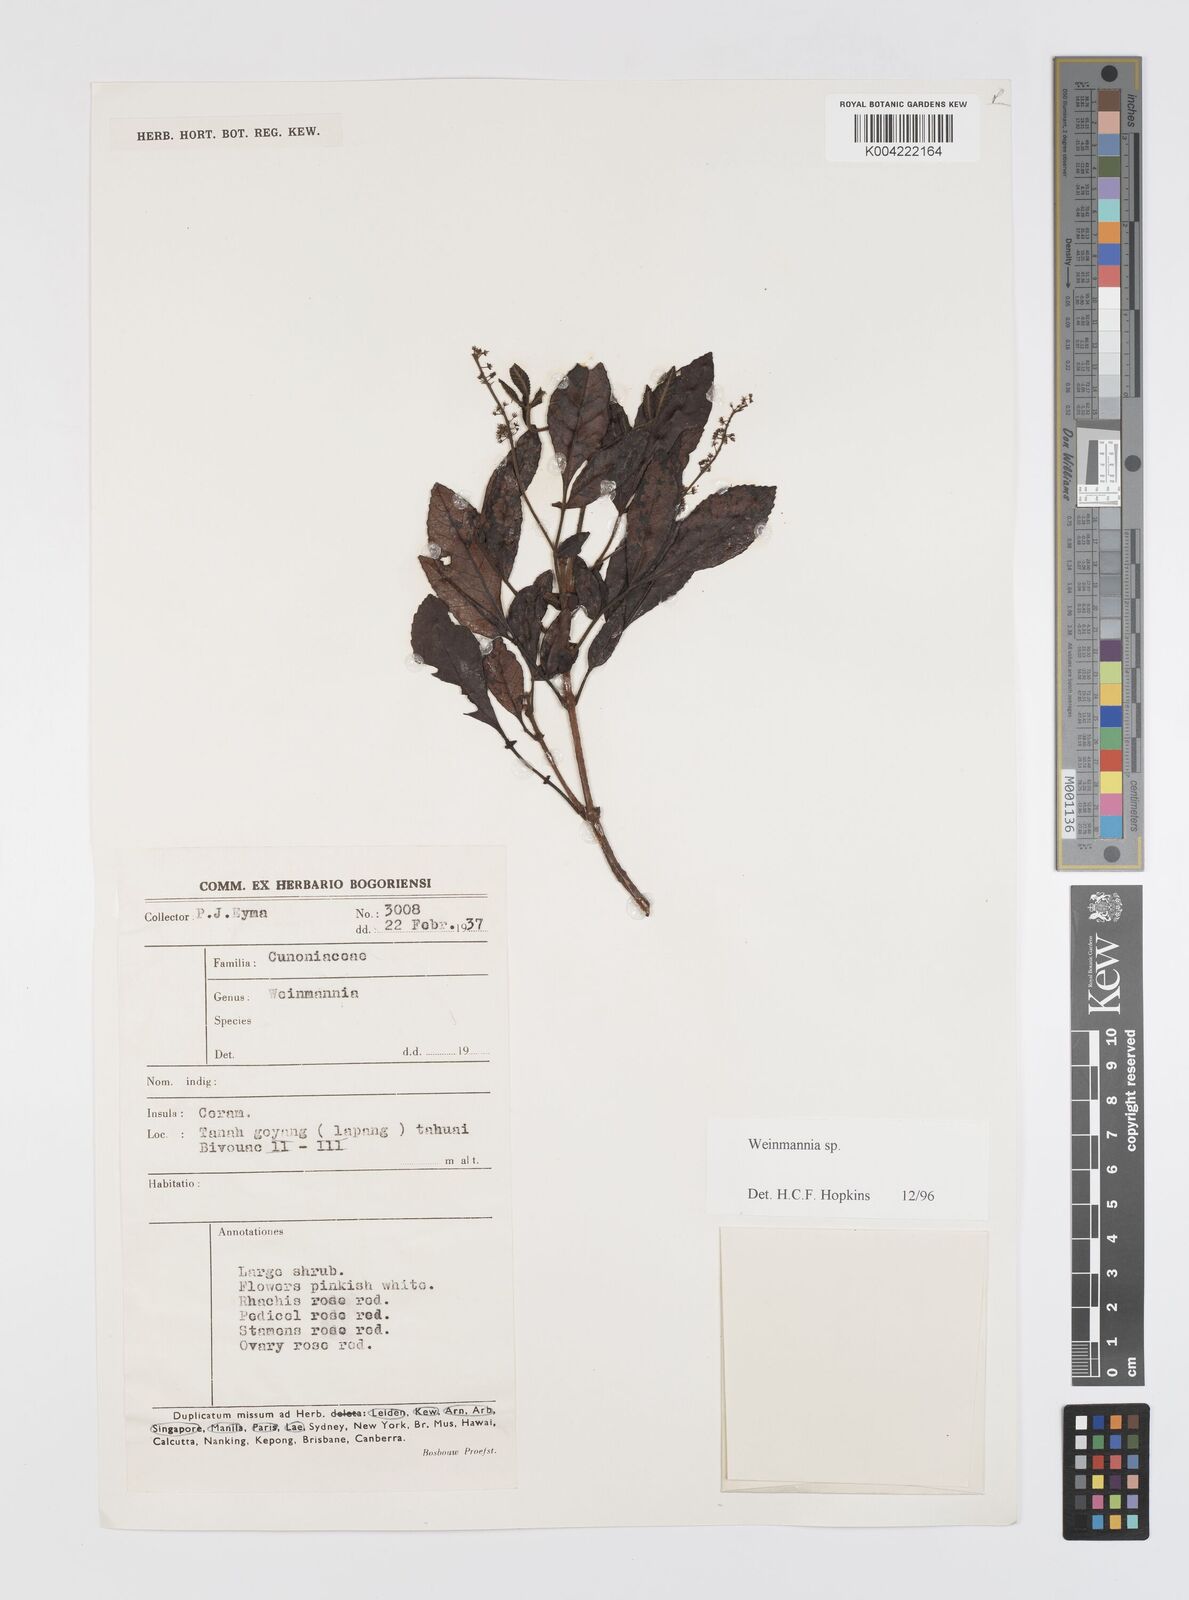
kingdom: Plantae
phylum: Tracheophyta
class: Magnoliopsida
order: Oxalidales
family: Cunoniaceae
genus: Weinmannia
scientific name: Weinmannia
